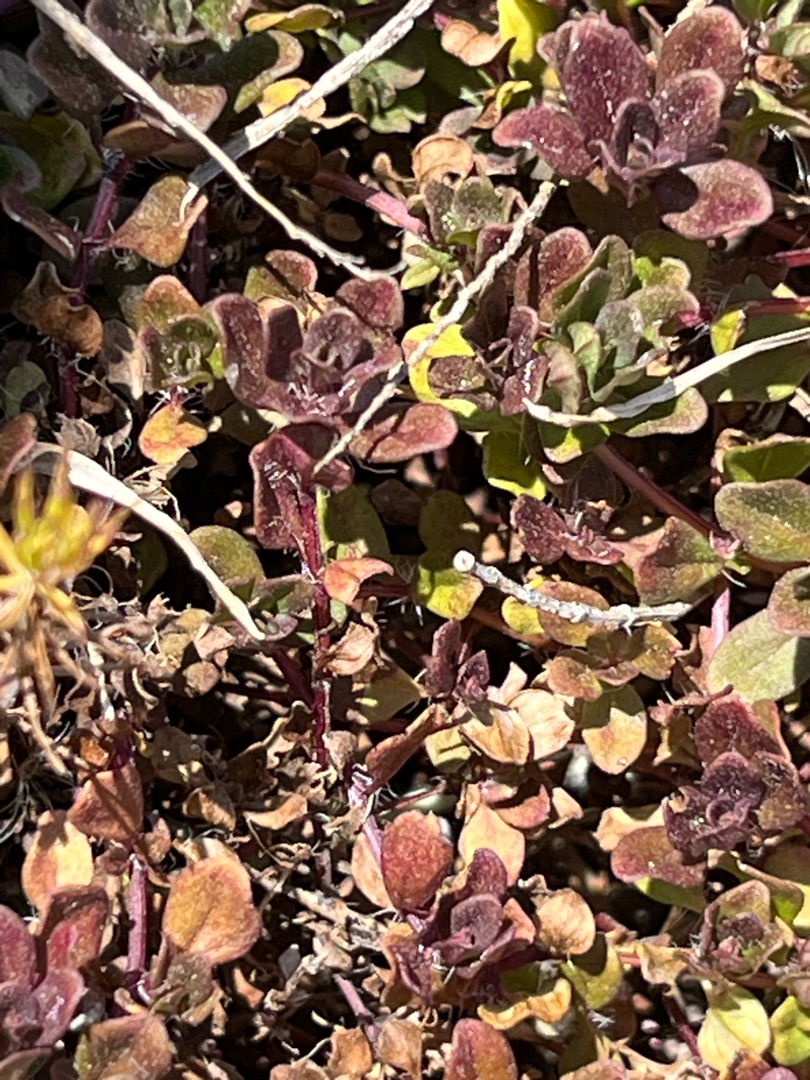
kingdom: Plantae
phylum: Tracheophyta
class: Magnoliopsida
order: Lamiales
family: Lamiaceae
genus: Thymus
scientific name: Thymus pulegioides
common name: Bredbladet timian
